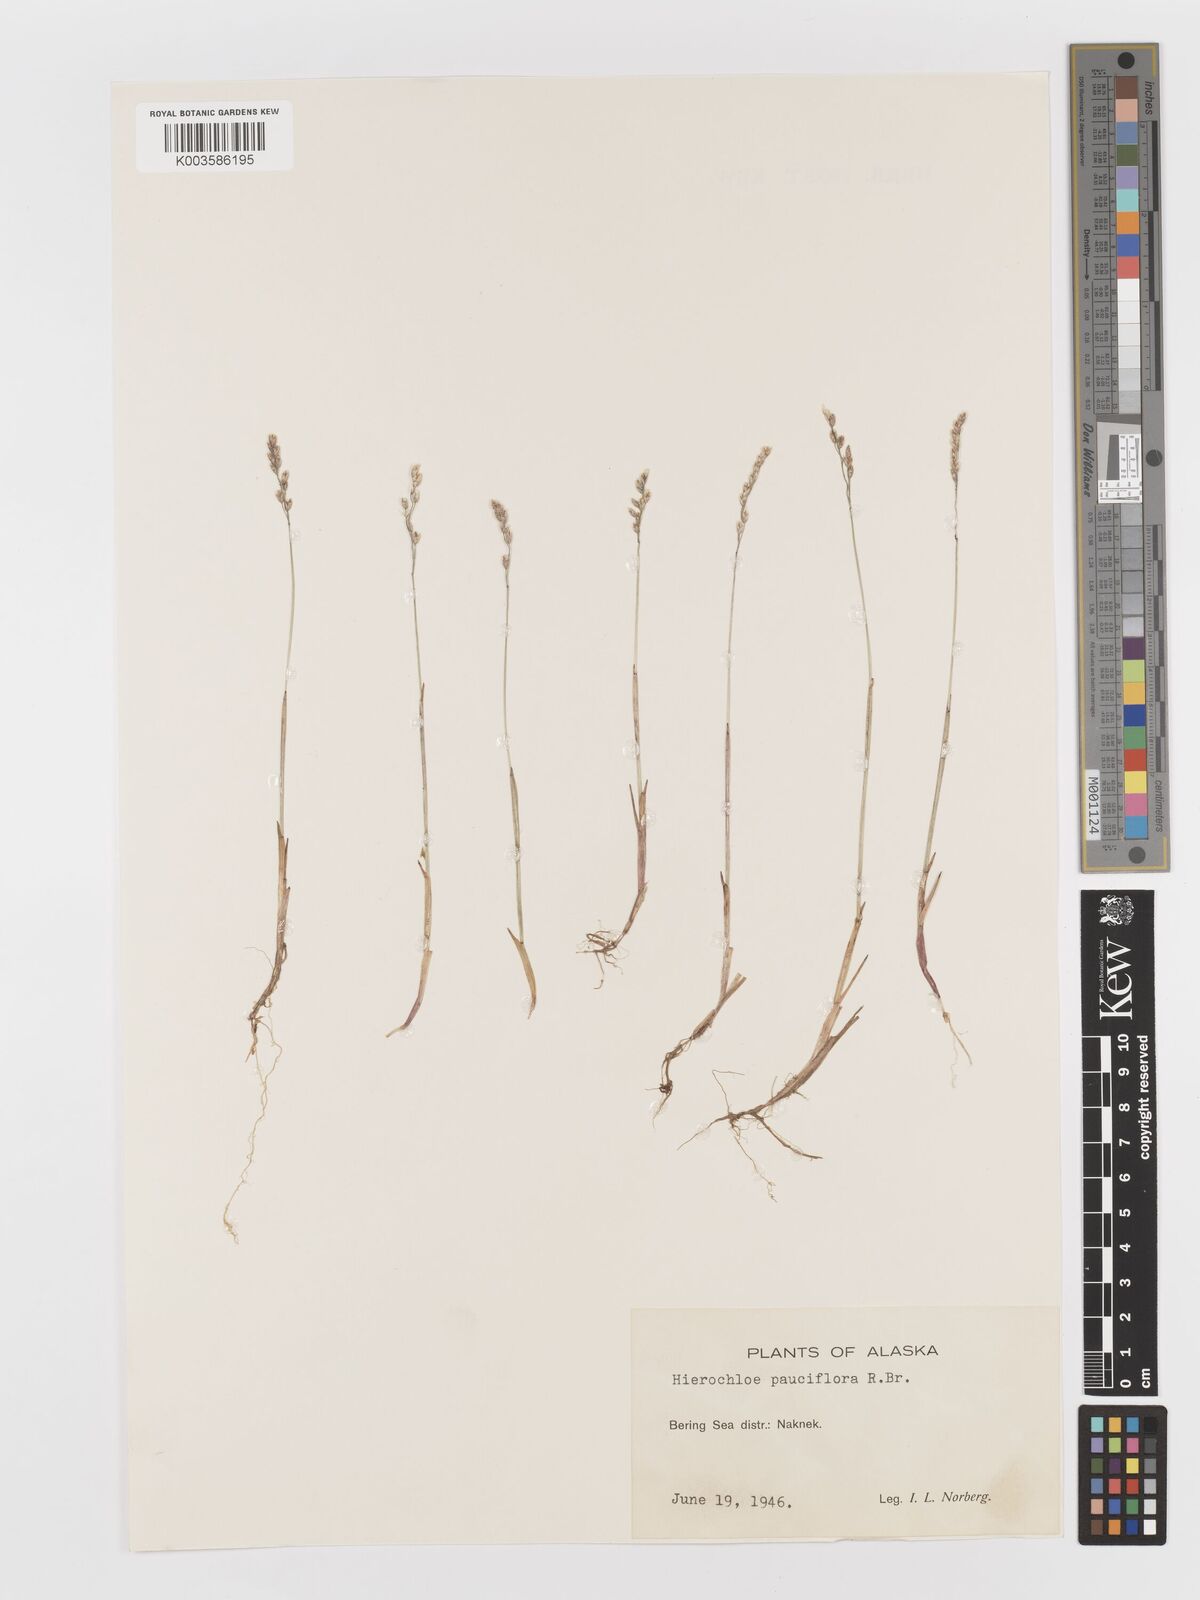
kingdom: Plantae
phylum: Tracheophyta
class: Liliopsida
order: Poales
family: Poaceae
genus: Anthoxanthum
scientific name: Anthoxanthum arcticum
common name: Arctic sweetgrass
